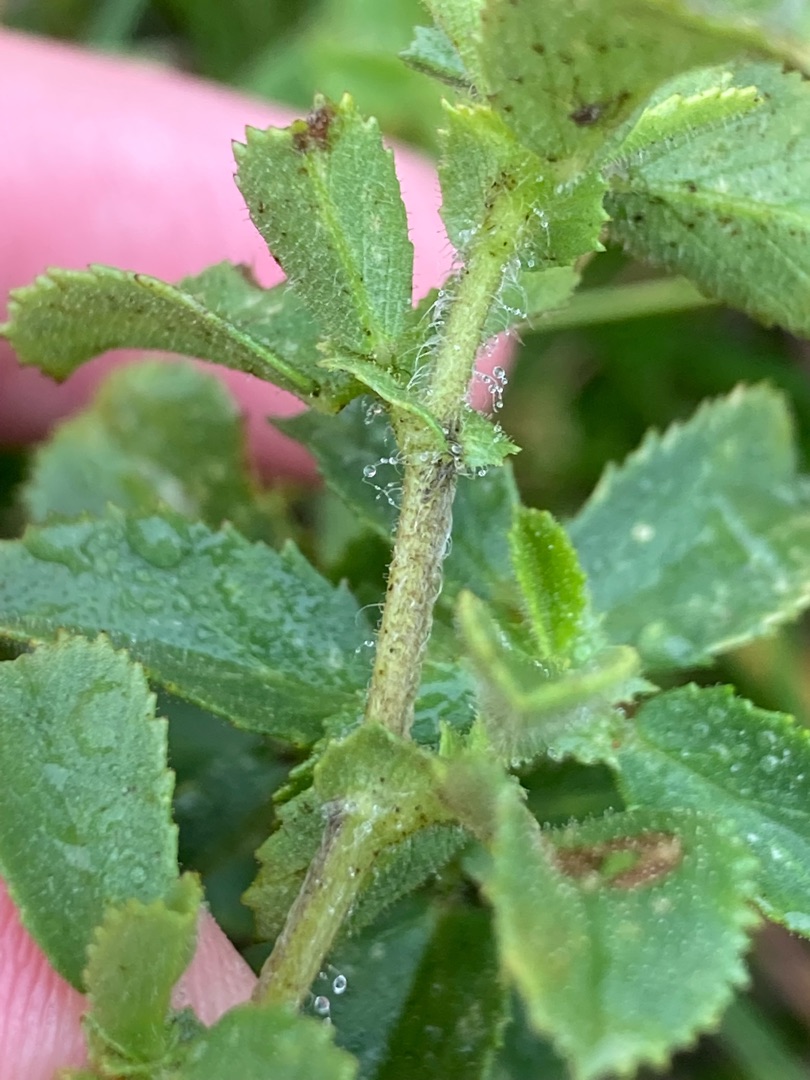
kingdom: Plantae
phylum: Tracheophyta
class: Magnoliopsida
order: Fabales
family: Fabaceae
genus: Ononis
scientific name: Ononis spinosa
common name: Mark-krageklo
